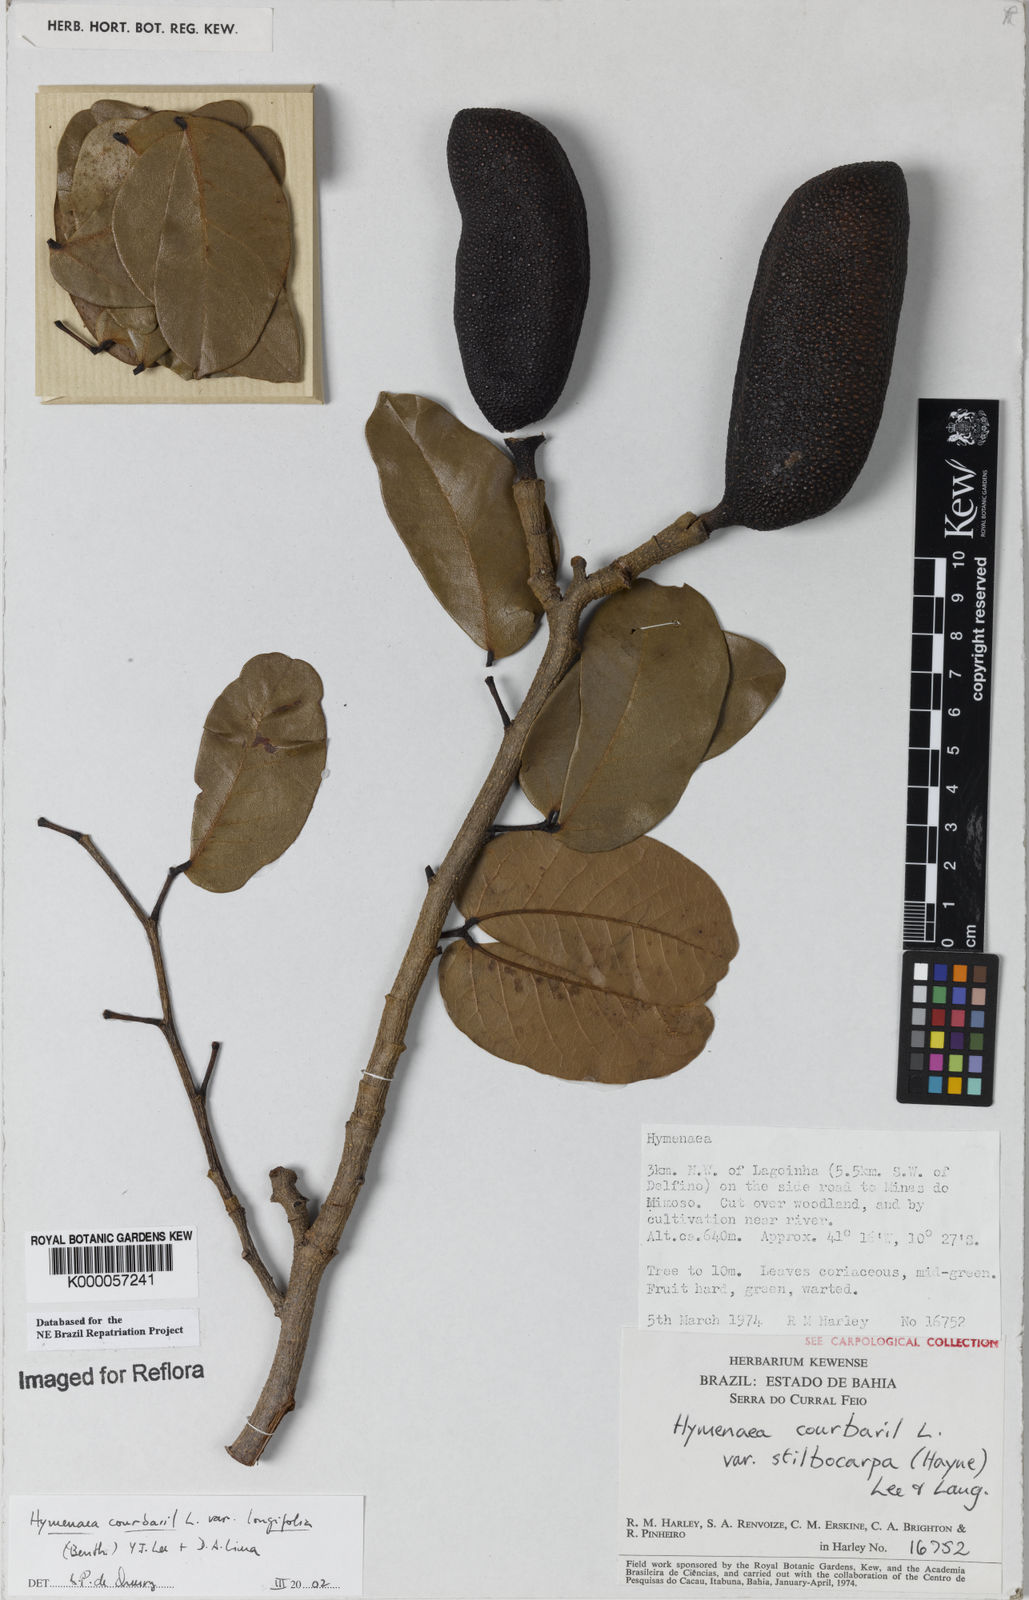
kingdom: Plantae
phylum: Tracheophyta
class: Magnoliopsida
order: Fabales
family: Fabaceae
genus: Hymenaea
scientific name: Hymenaea longifolia
